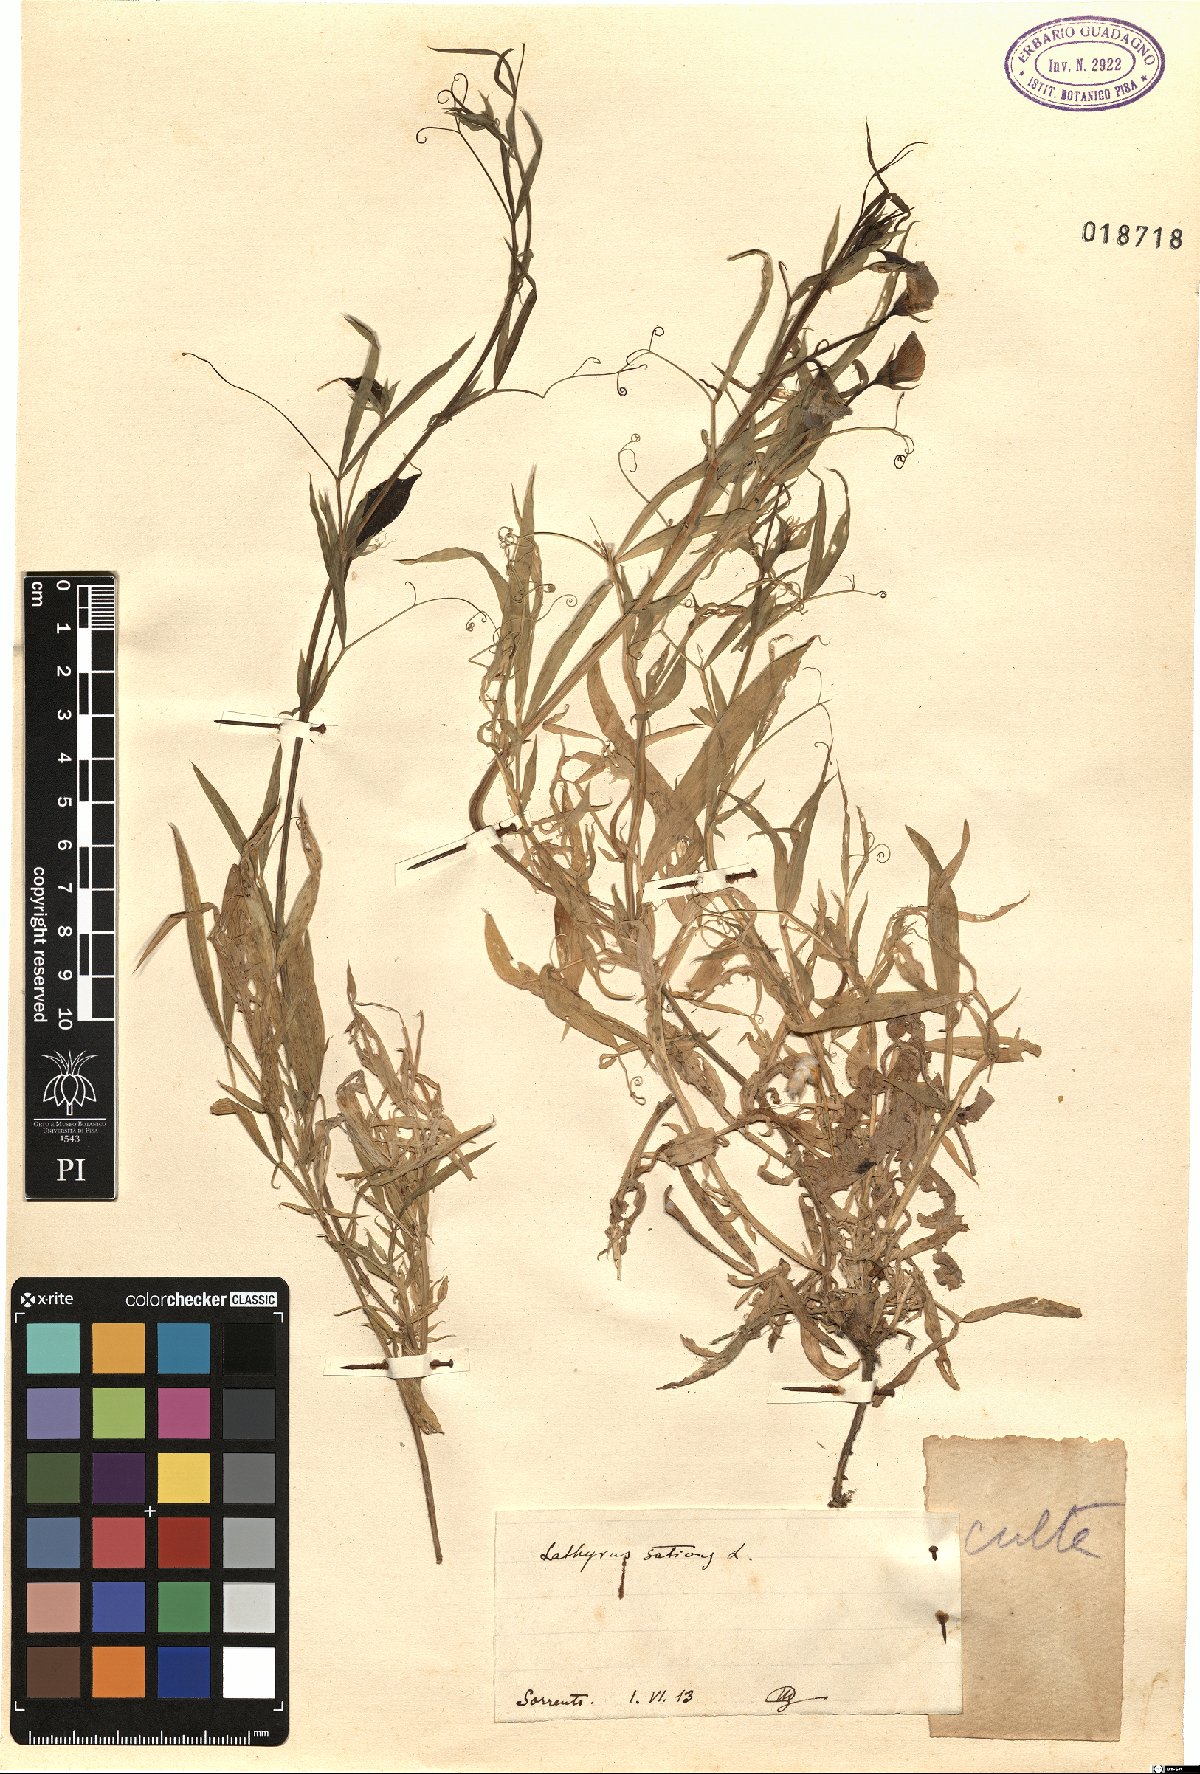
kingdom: Plantae
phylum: Tracheophyta
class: Magnoliopsida
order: Fabales
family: Fabaceae
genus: Lathyrus
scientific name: Lathyrus sativus
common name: Indian pea
